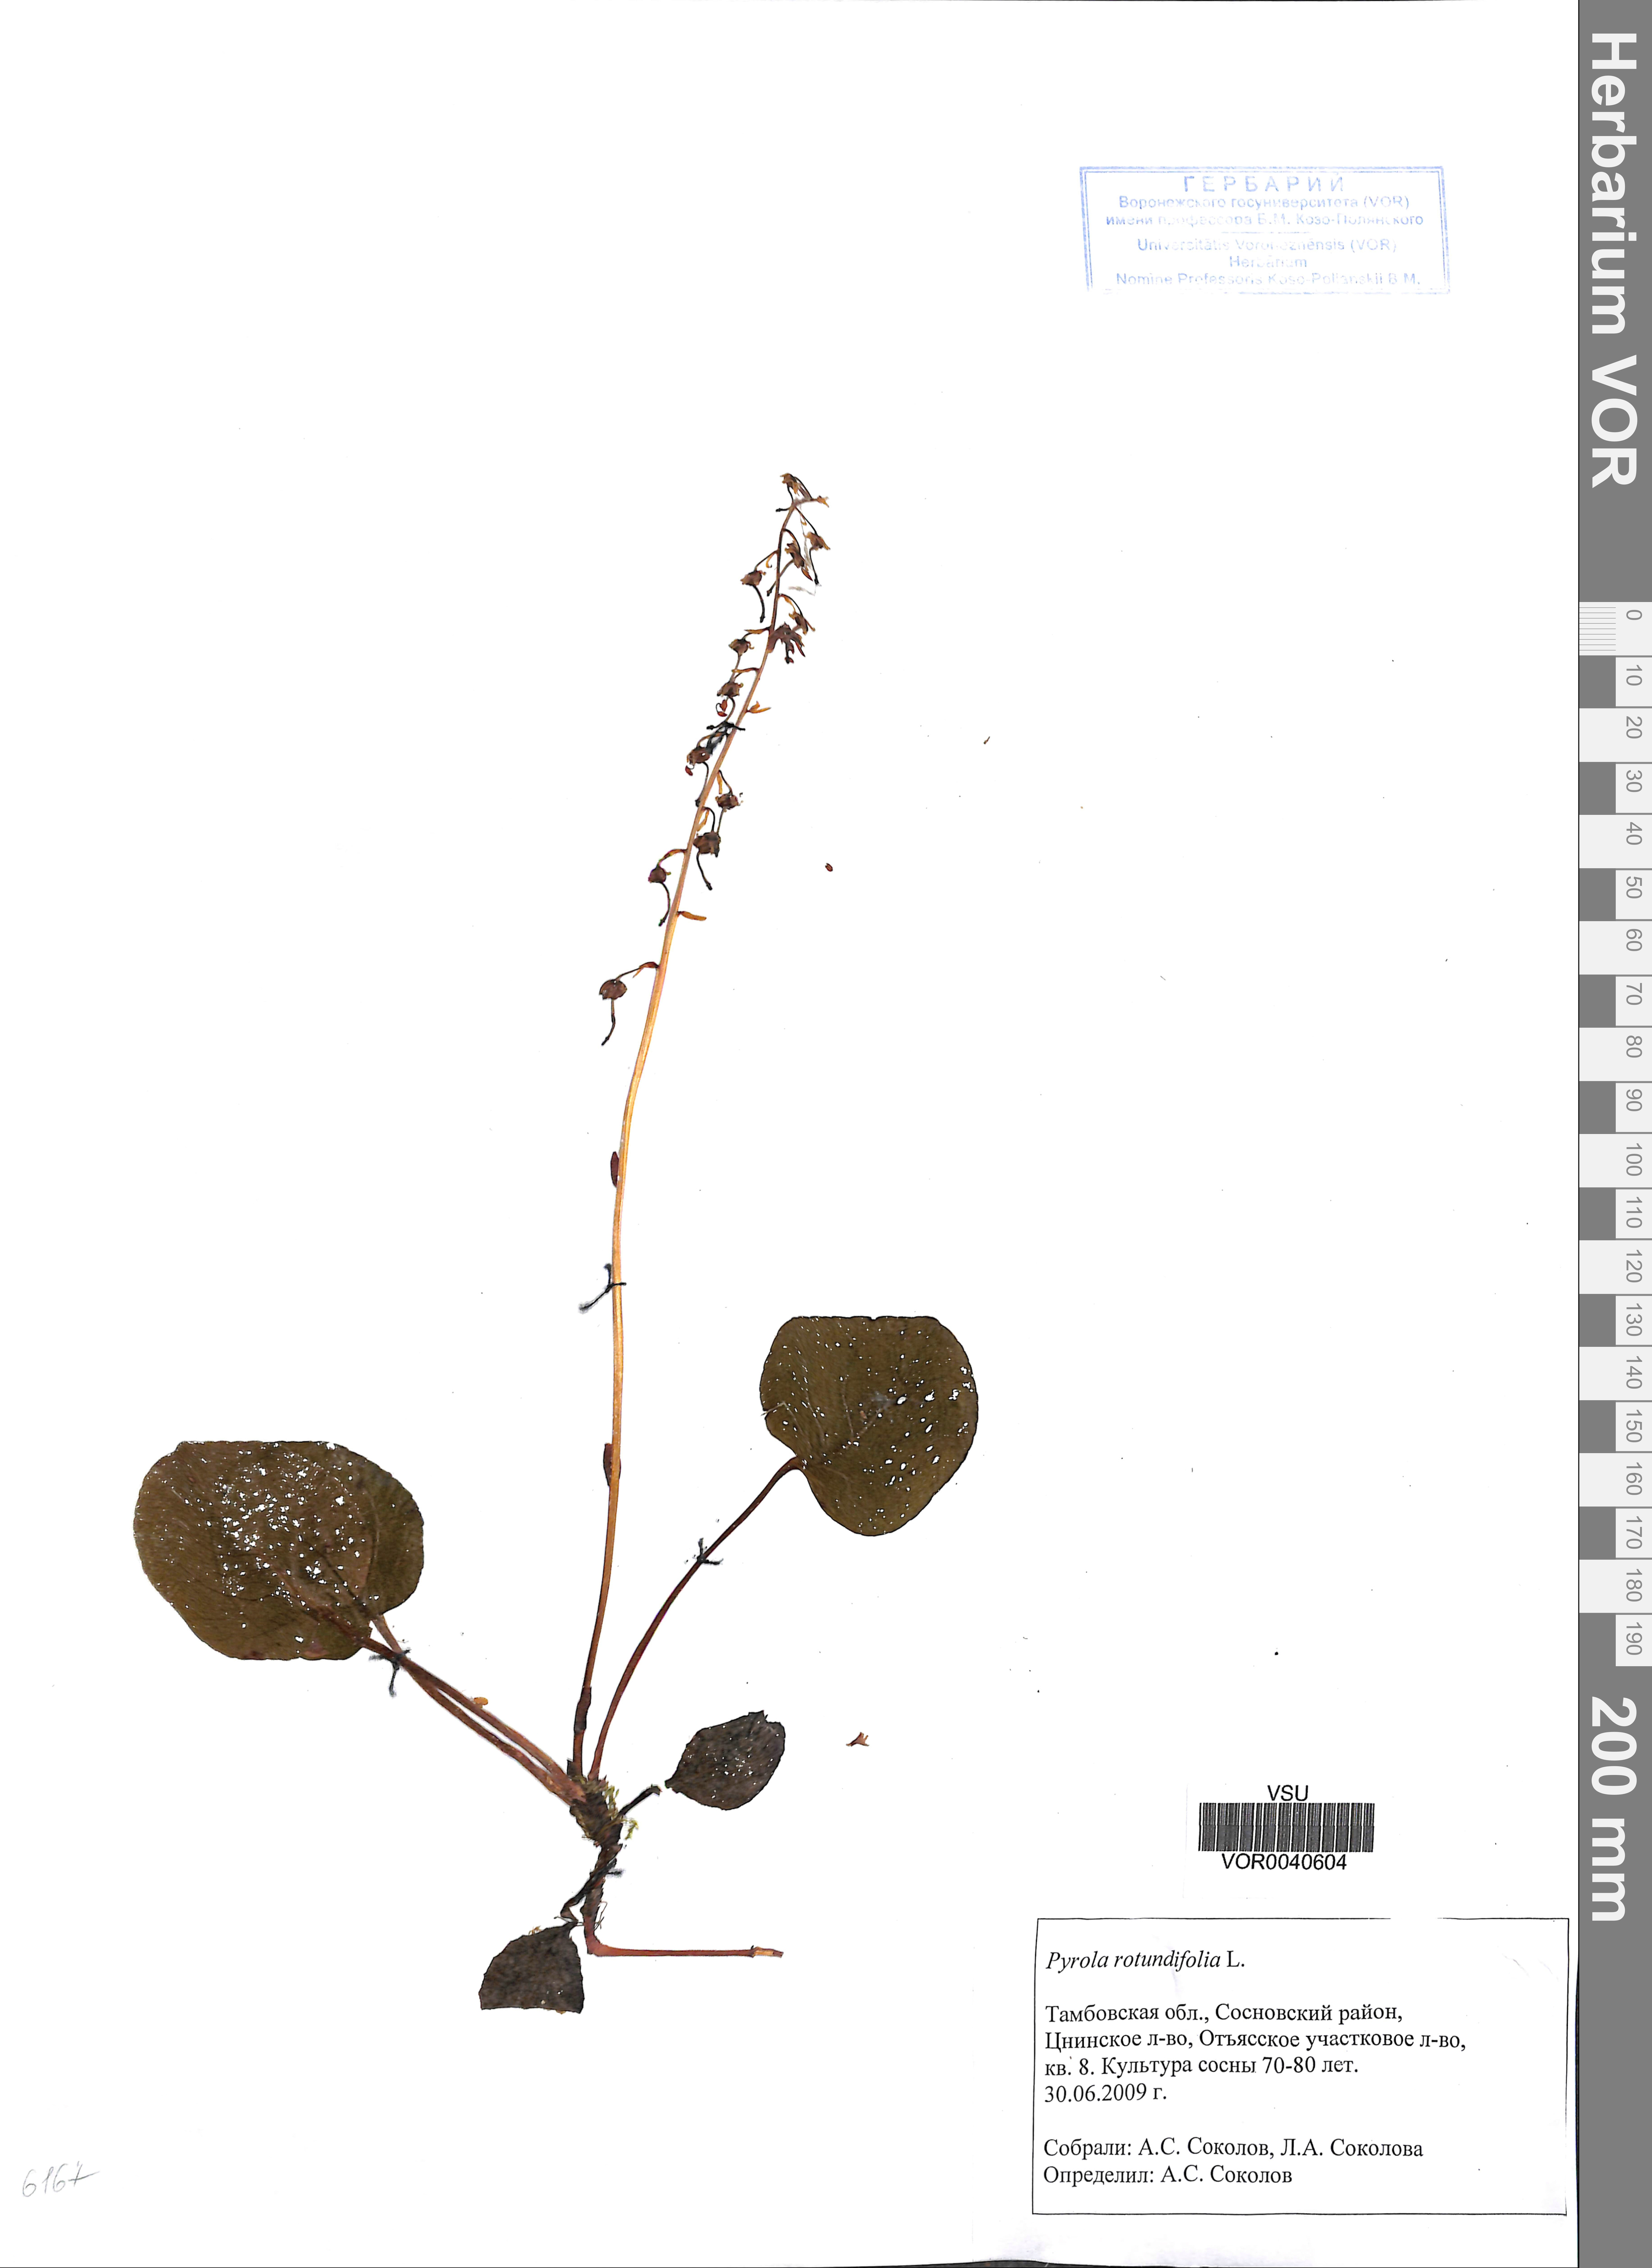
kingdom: Plantae
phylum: Tracheophyta
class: Magnoliopsida
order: Ericales
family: Ericaceae
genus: Pyrola
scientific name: Pyrola rotundifolia
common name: Round-leaved wintergreen
